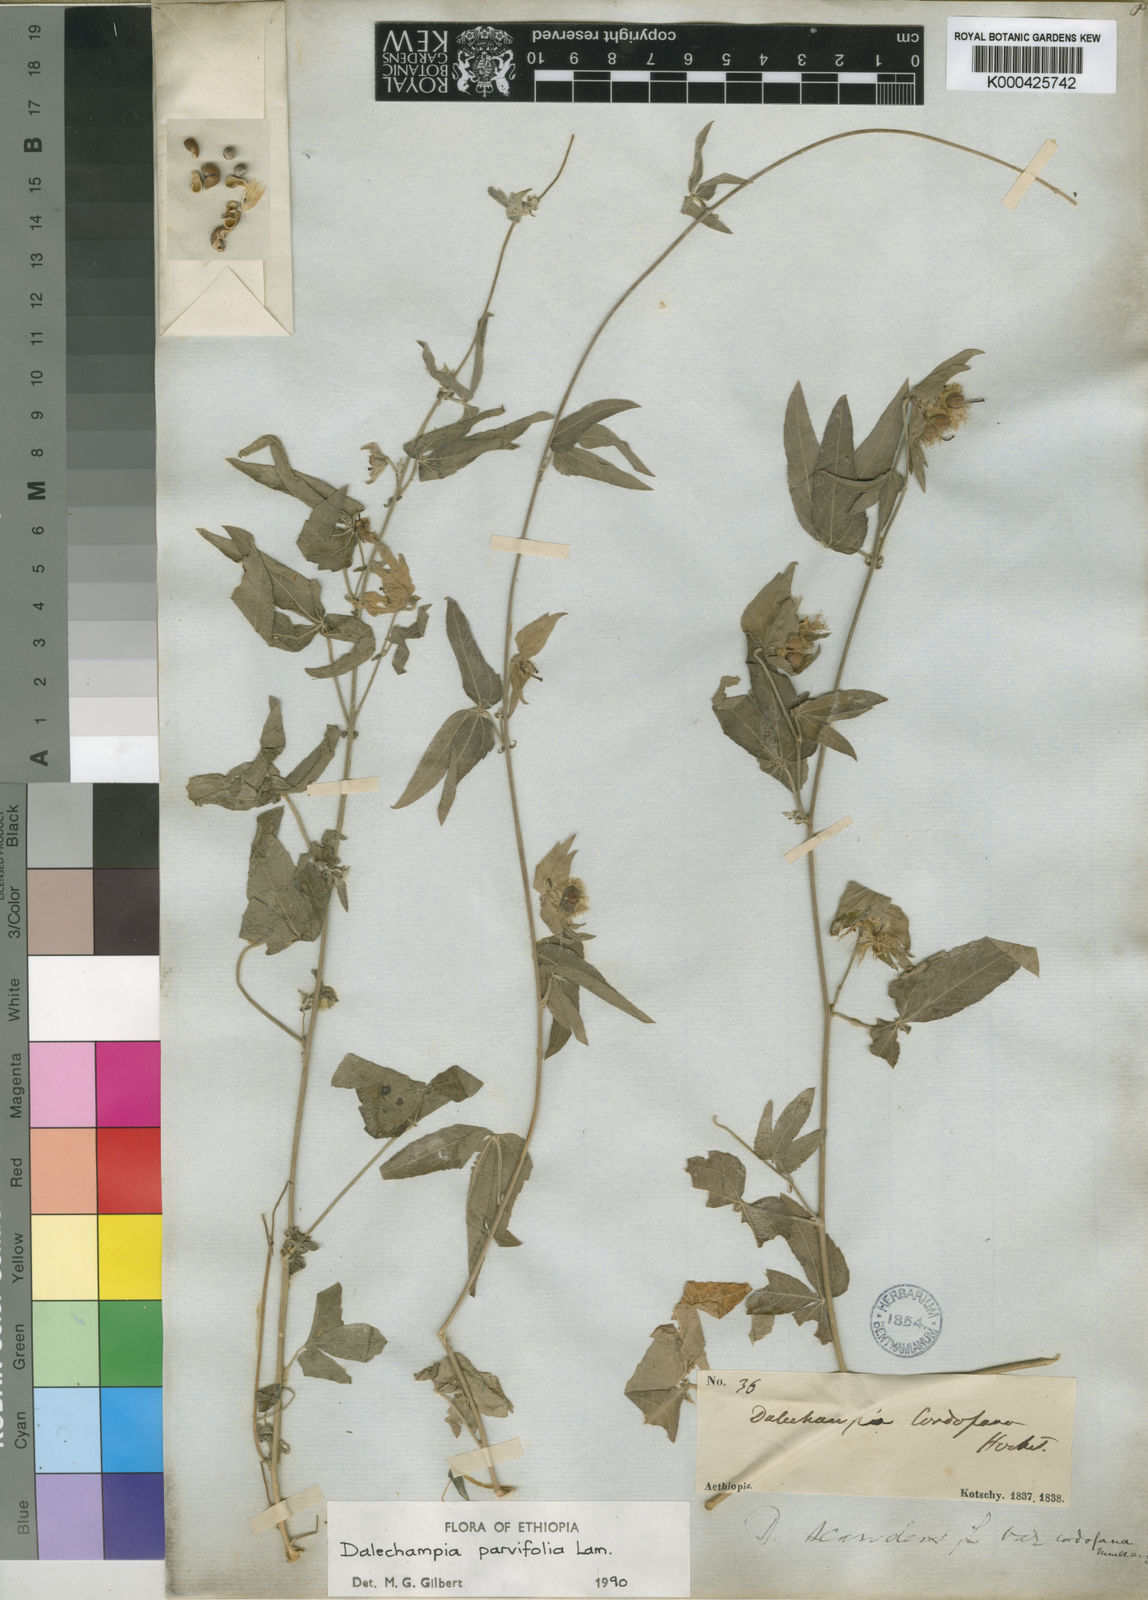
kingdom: Plantae
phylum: Tracheophyta
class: Magnoliopsida
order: Malpighiales
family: Euphorbiaceae
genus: Dalechampia
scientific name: Dalechampia scandens
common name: Spurgecreeper
